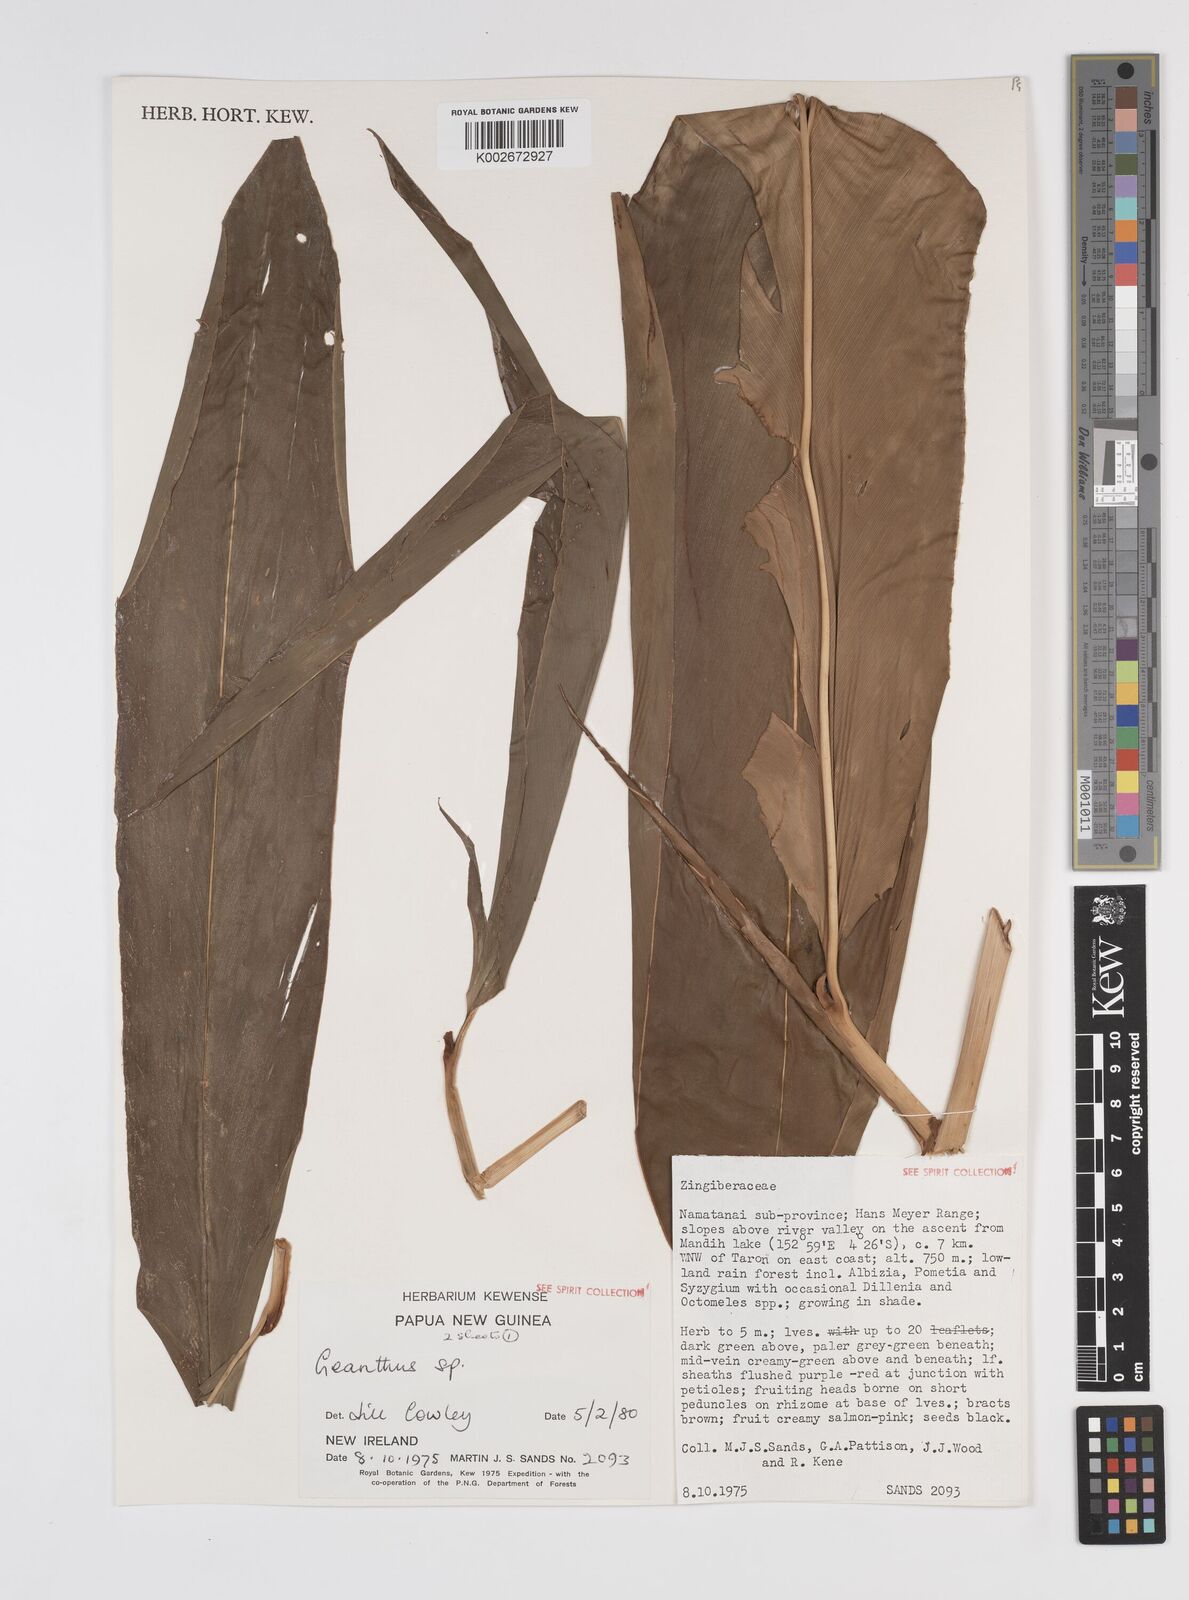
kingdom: Plantae
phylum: Tracheophyta
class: Liliopsida
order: Zingiberales
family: Zingiberaceae
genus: Etlingera
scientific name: Etlingera
